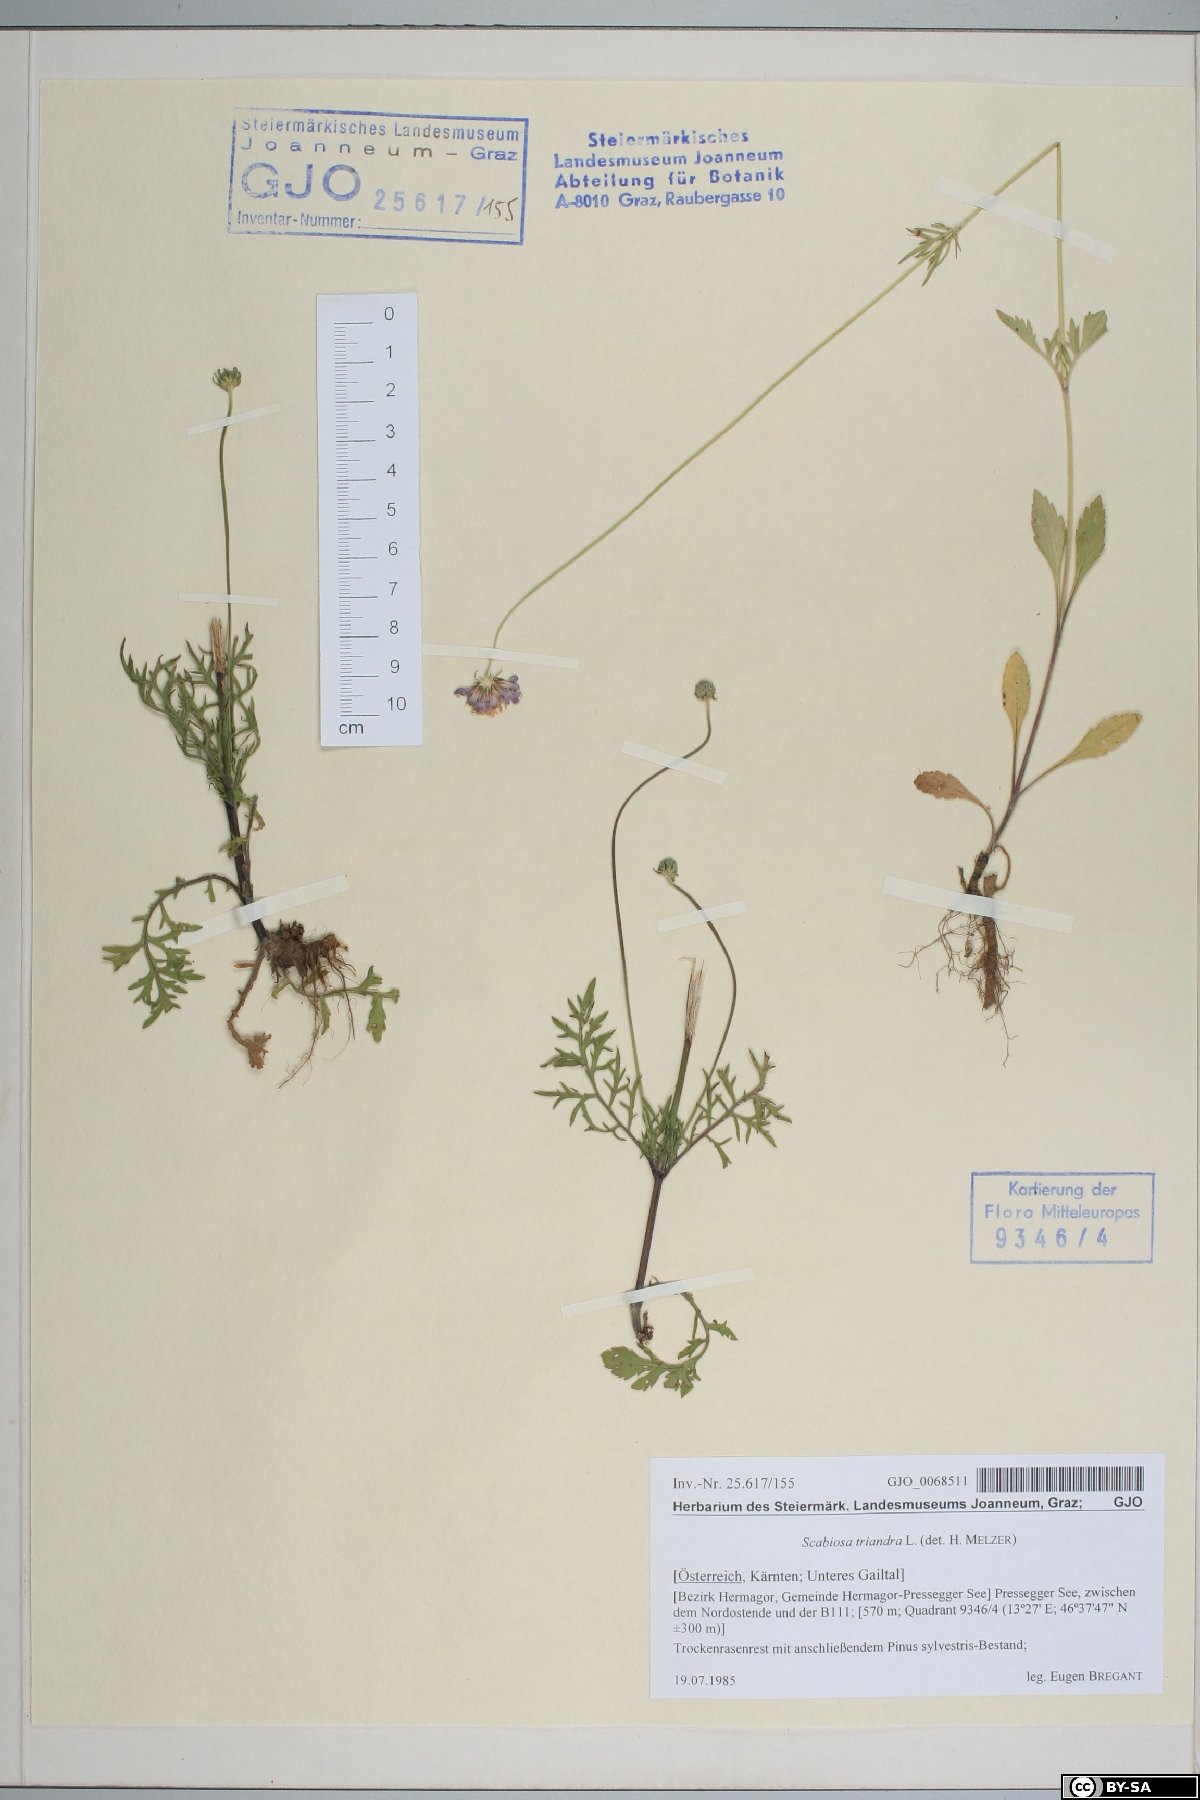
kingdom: Plantae
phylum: Tracheophyta
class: Magnoliopsida
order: Dipsacales
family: Caprifoliaceae
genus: Scabiosa
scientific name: Scabiosa triandra
